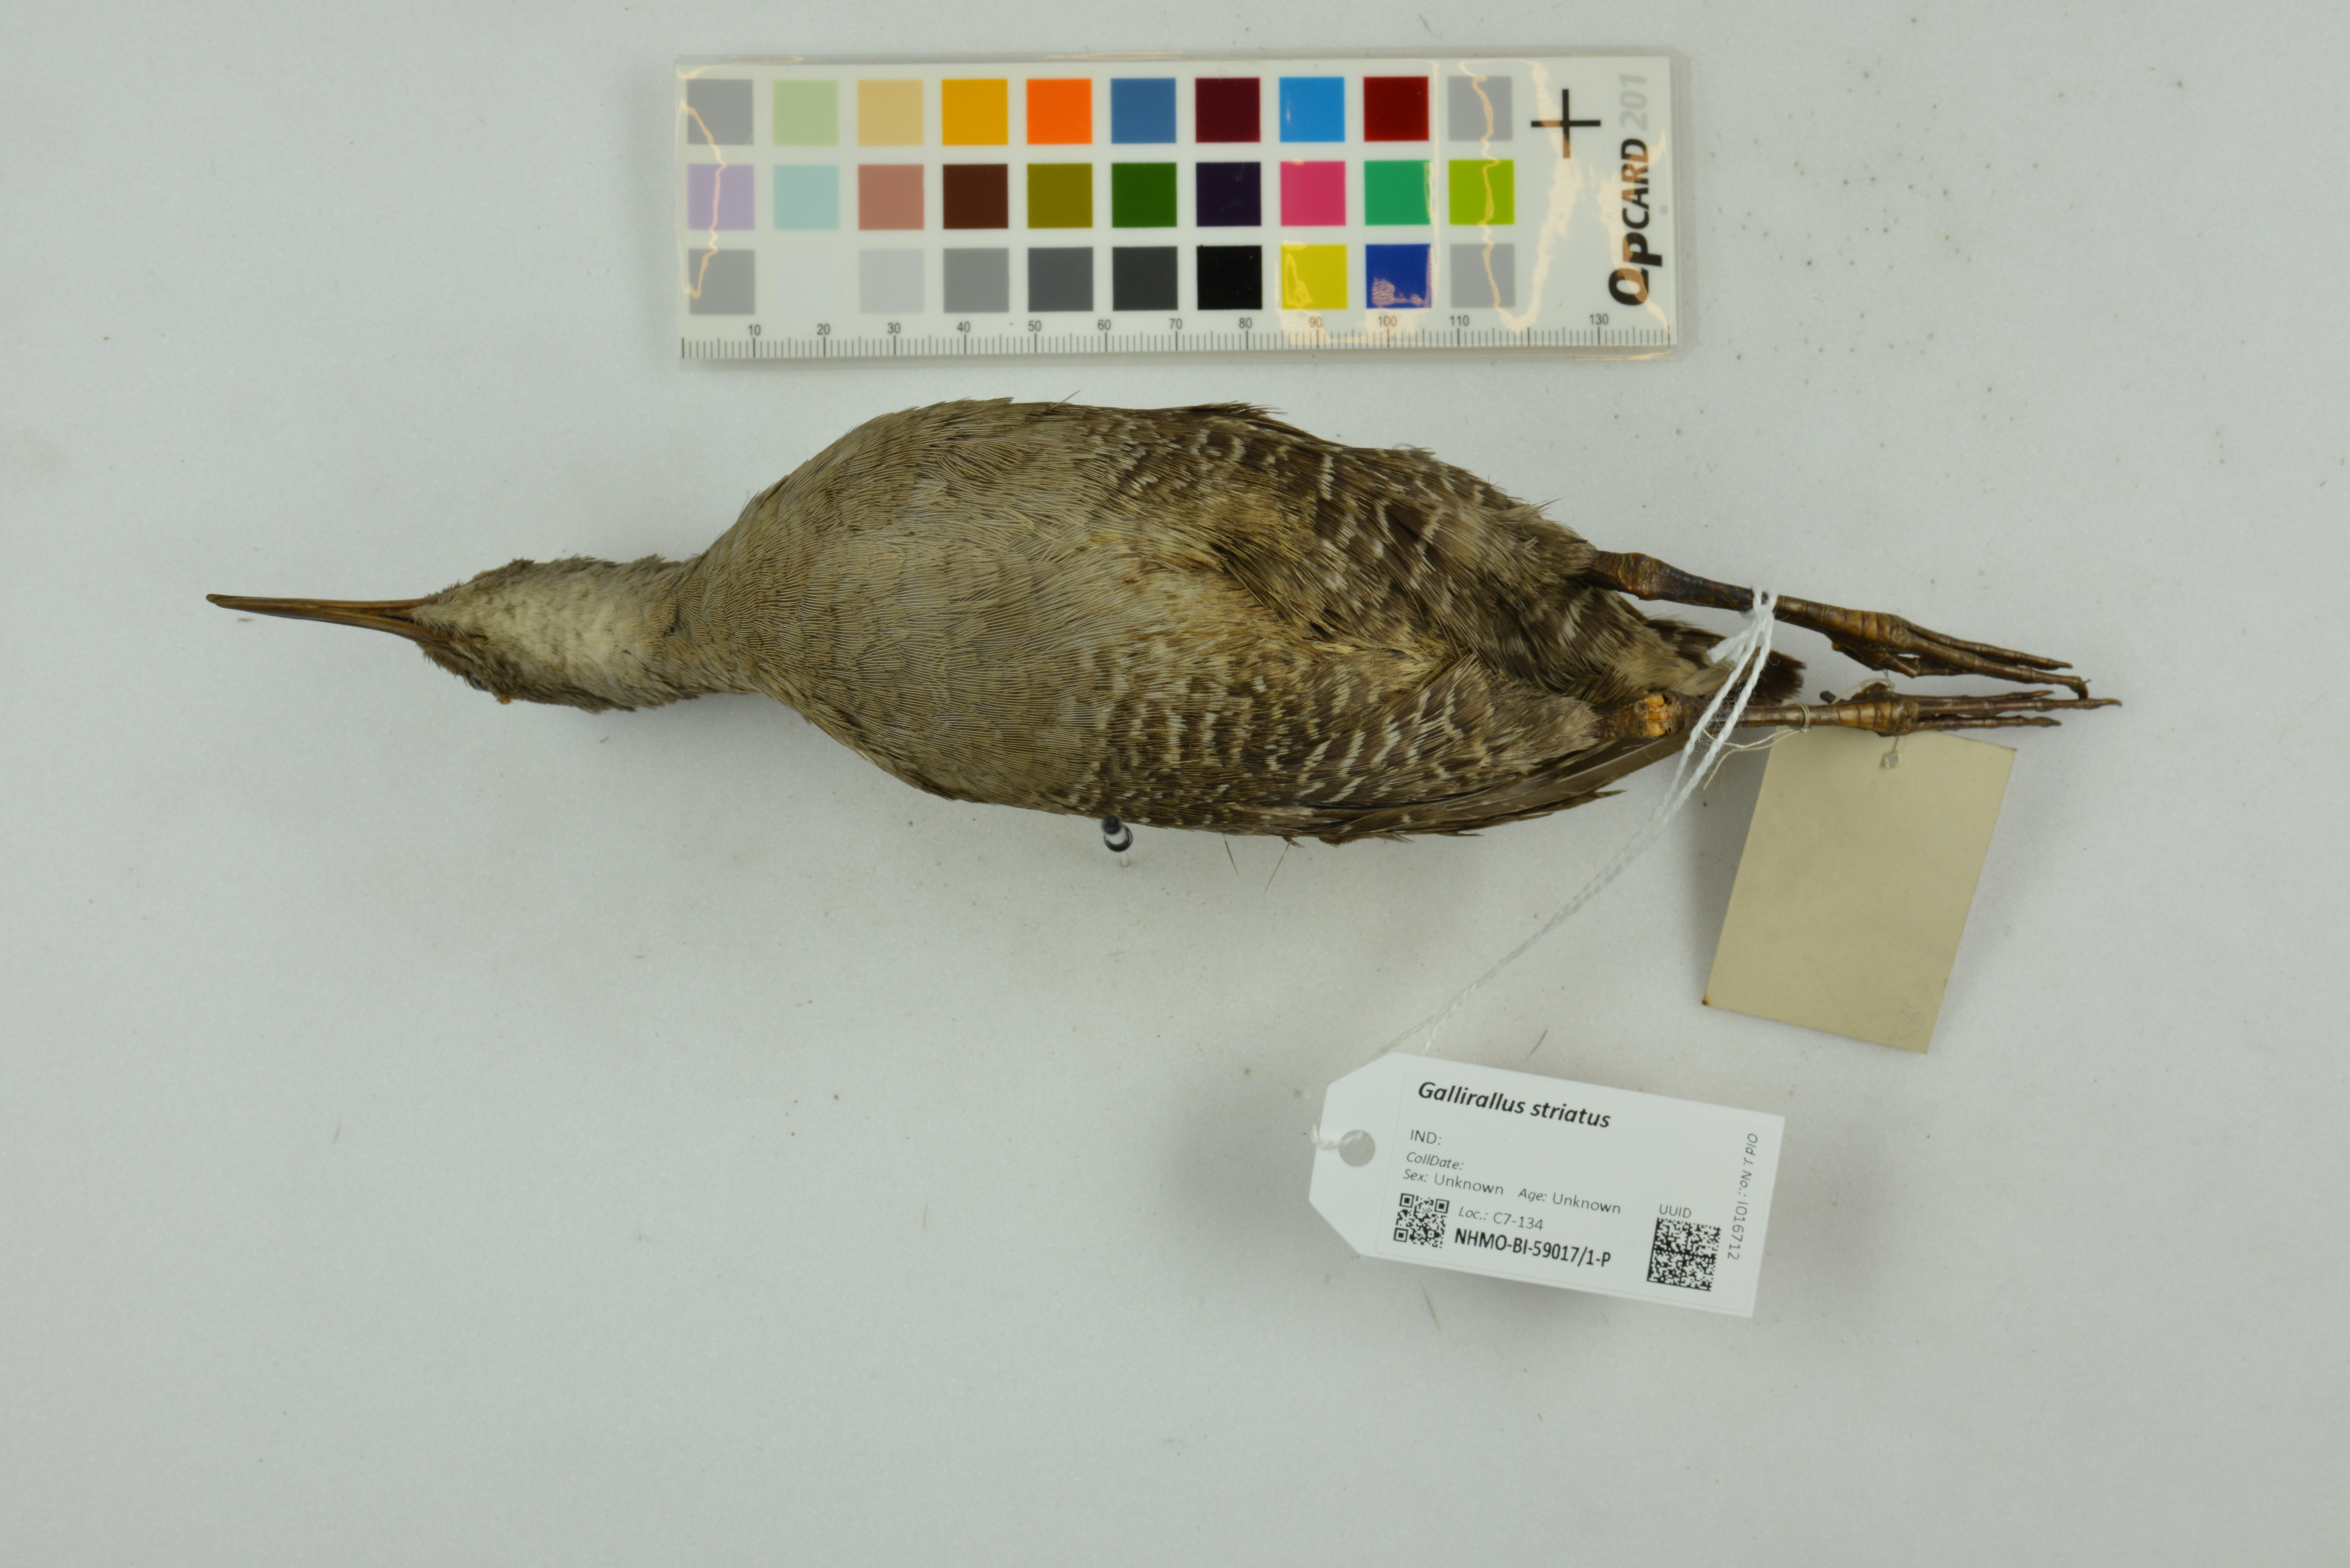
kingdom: Animalia
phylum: Chordata
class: Aves
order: Gruiformes
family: Rallidae
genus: Gallirallus
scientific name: Gallirallus striatus
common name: Slaty-breasted rail
